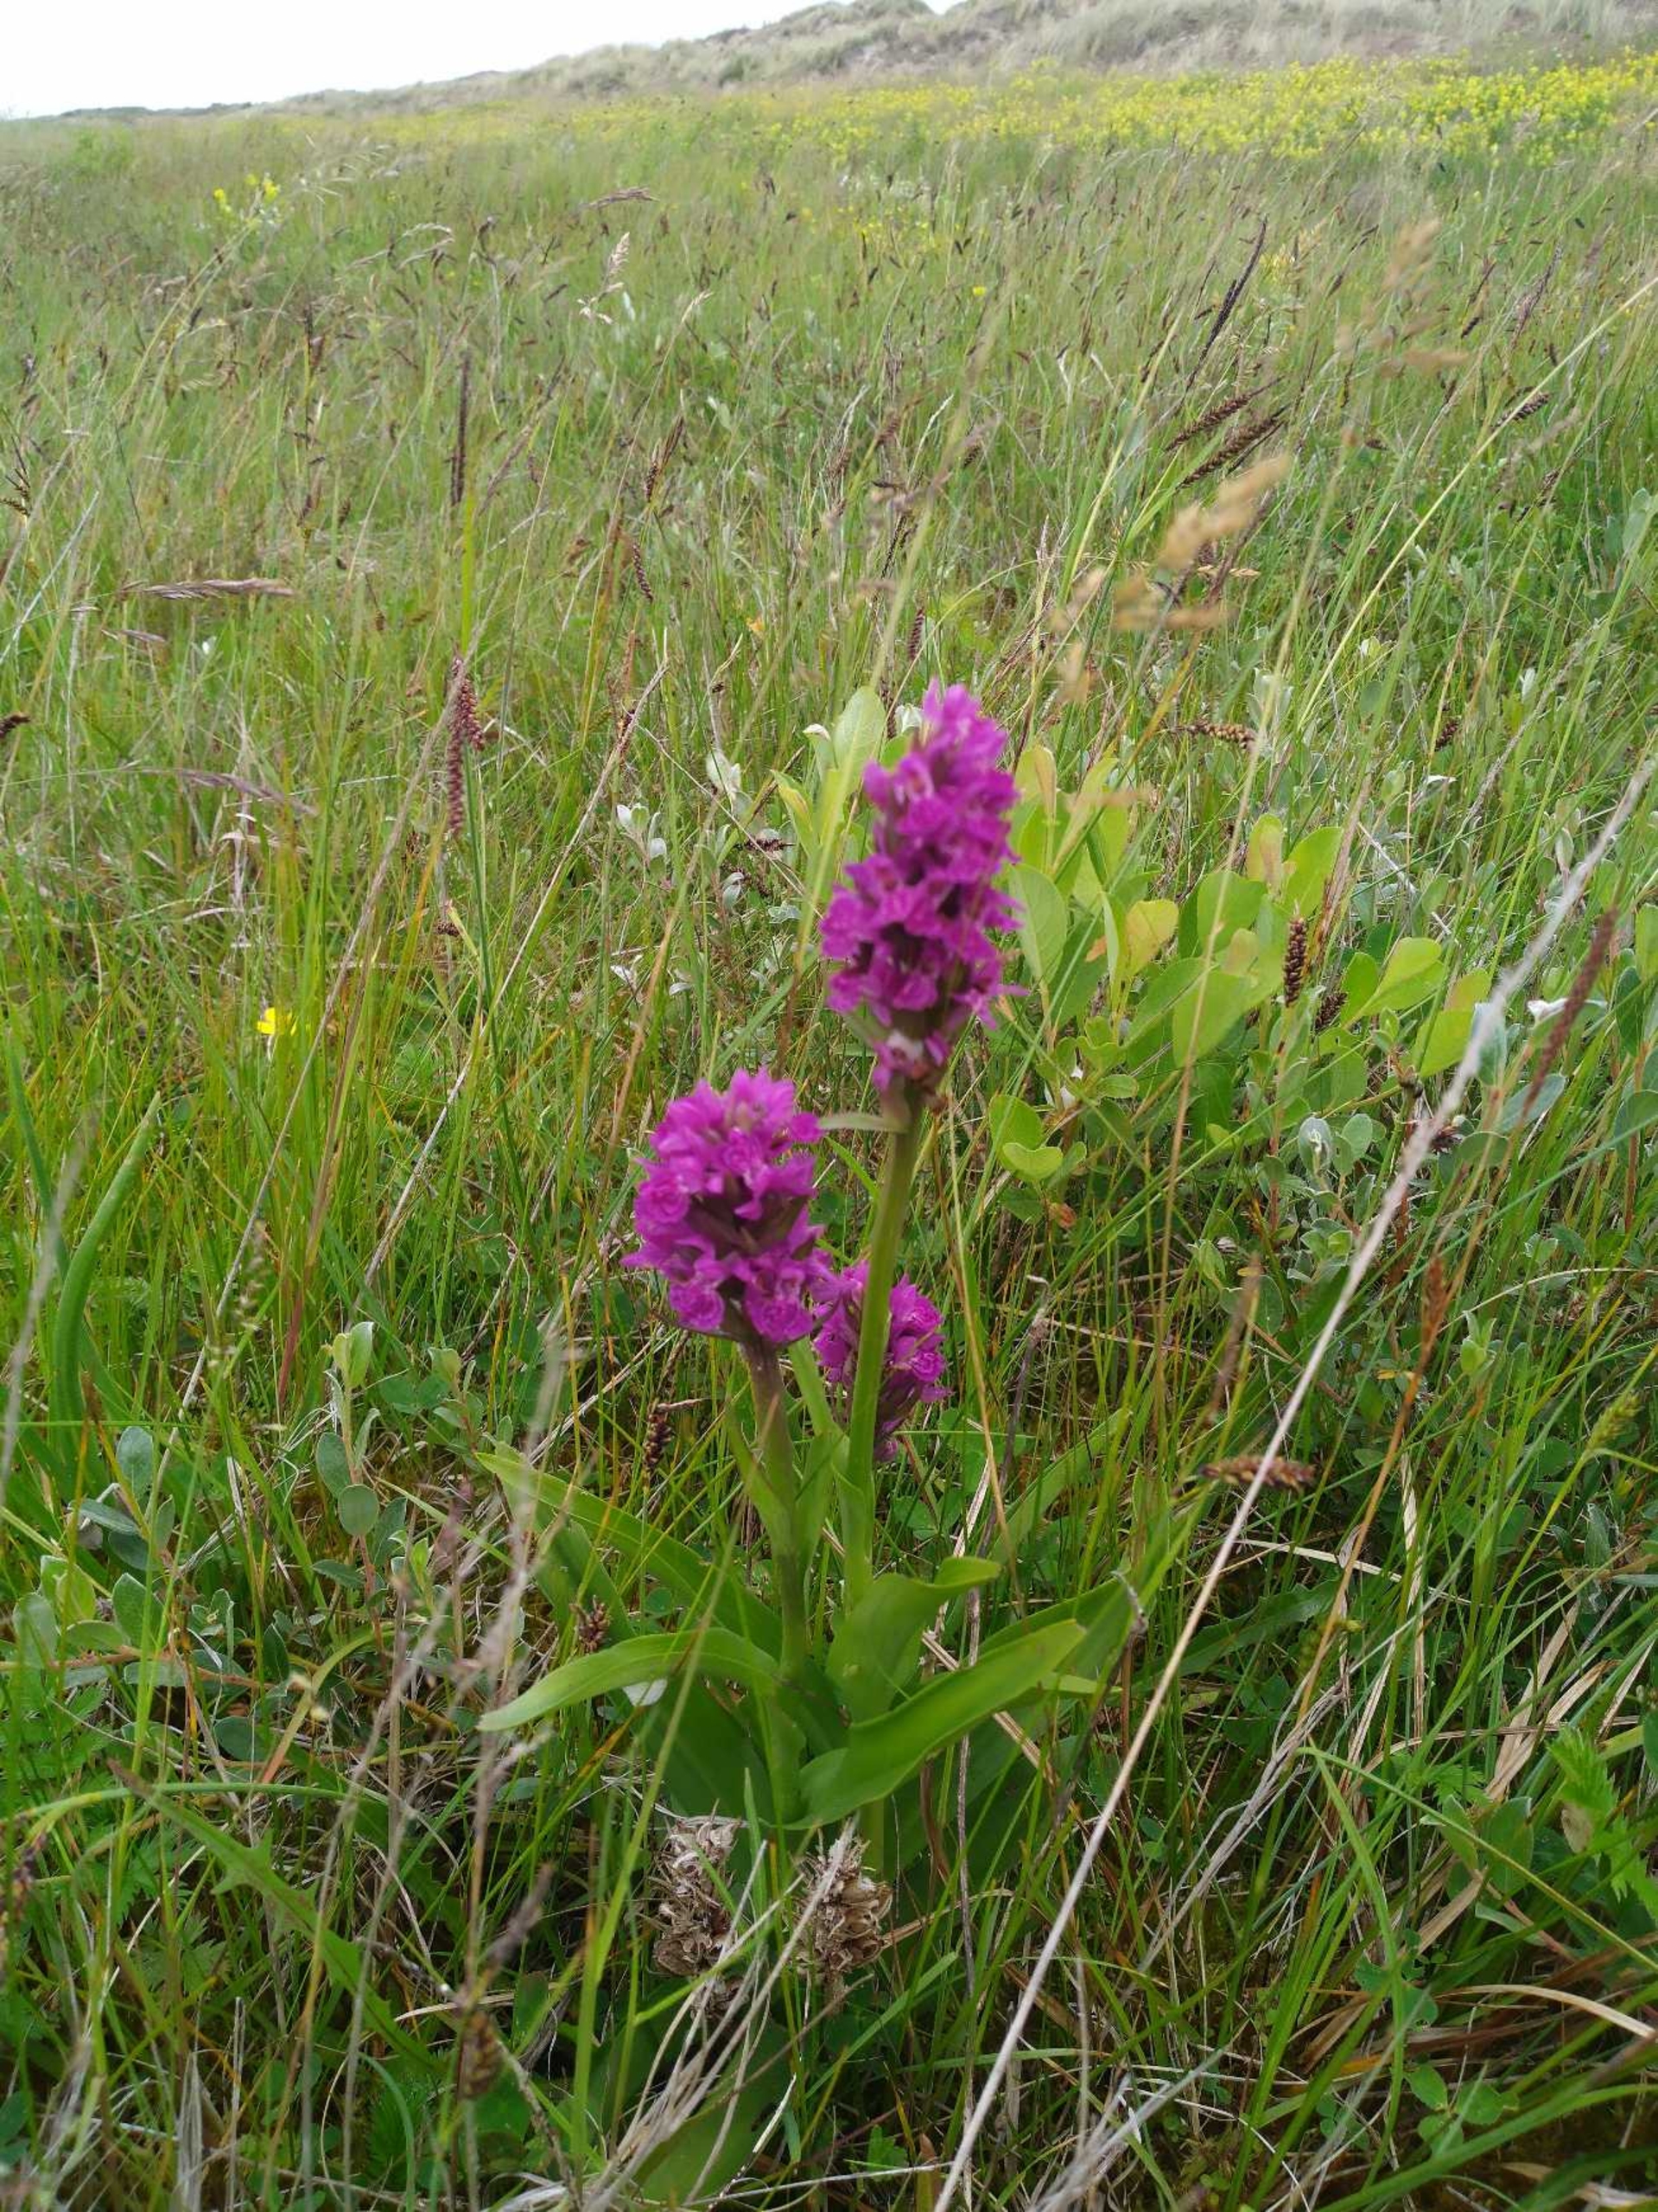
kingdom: Plantae
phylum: Tracheophyta
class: Liliopsida
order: Asparagales
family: Orchidaceae
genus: Dactylorhiza
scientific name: Dactylorhiza majalis
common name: Purpur-gøgeurt
